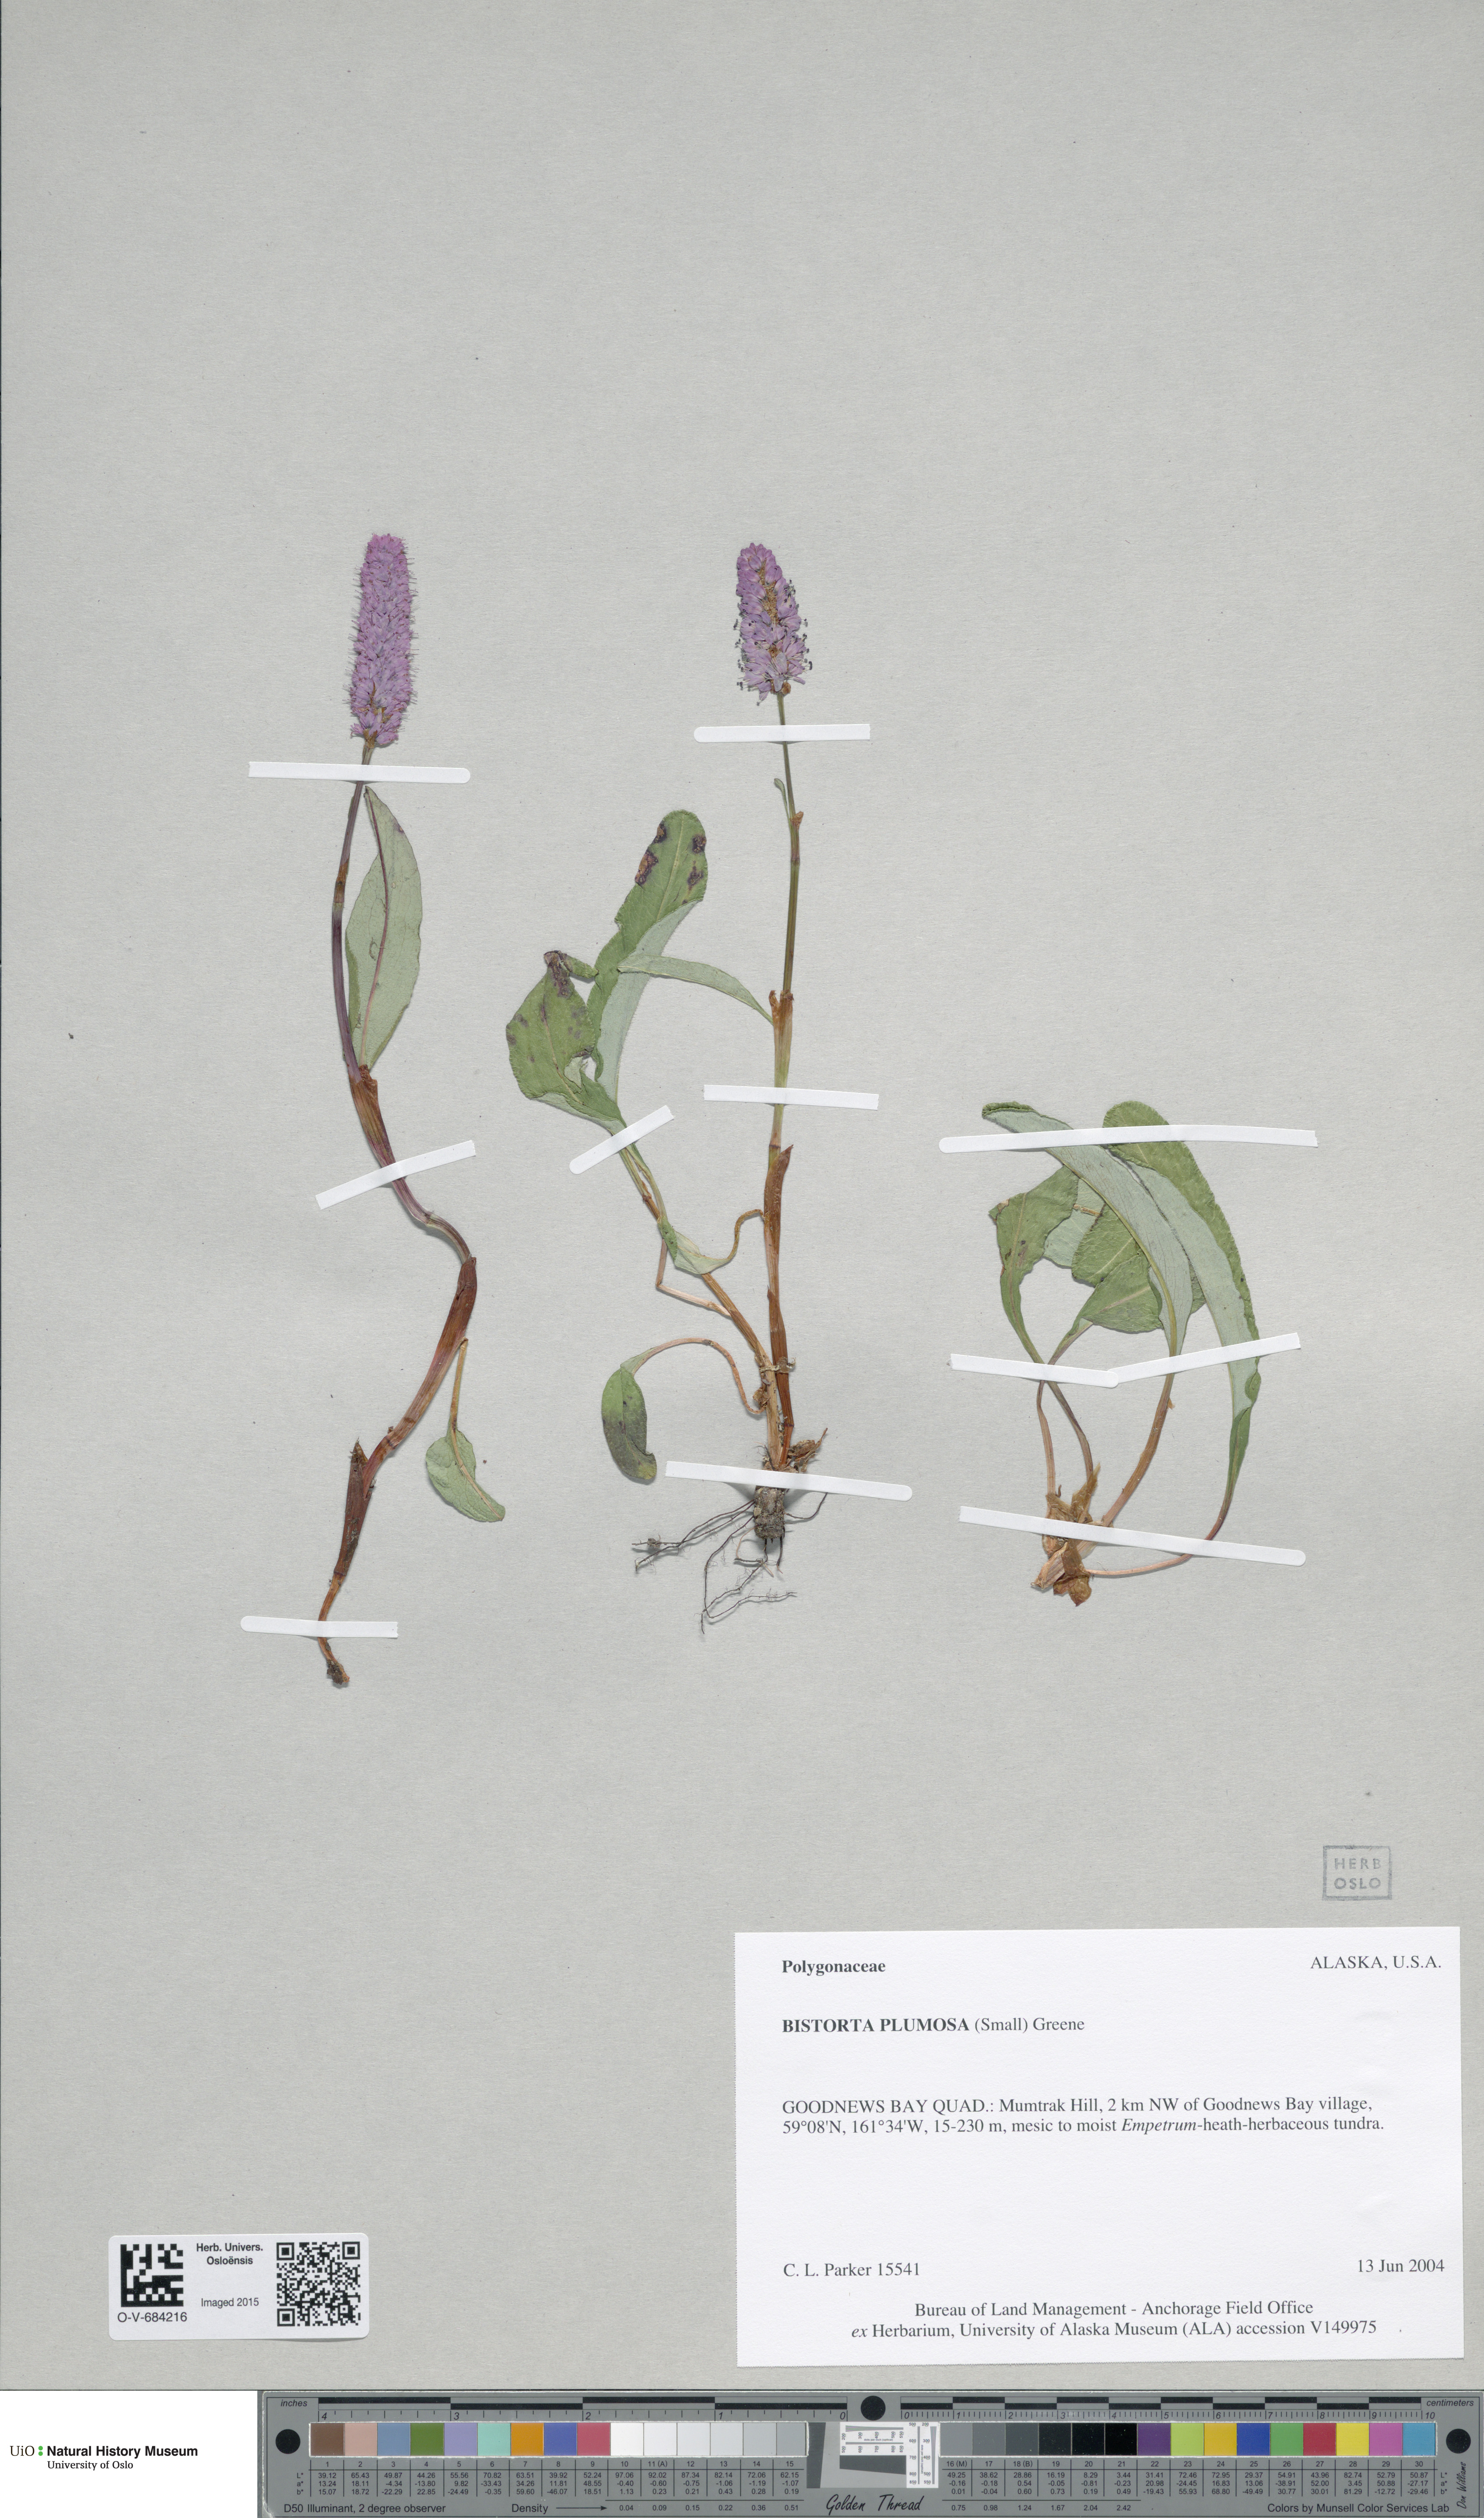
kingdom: Plantae
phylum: Tracheophyta
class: Magnoliopsida
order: Caryophyllales
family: Polygonaceae
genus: Bistorta
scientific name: Bistorta plumosa
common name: Meadow bistort
